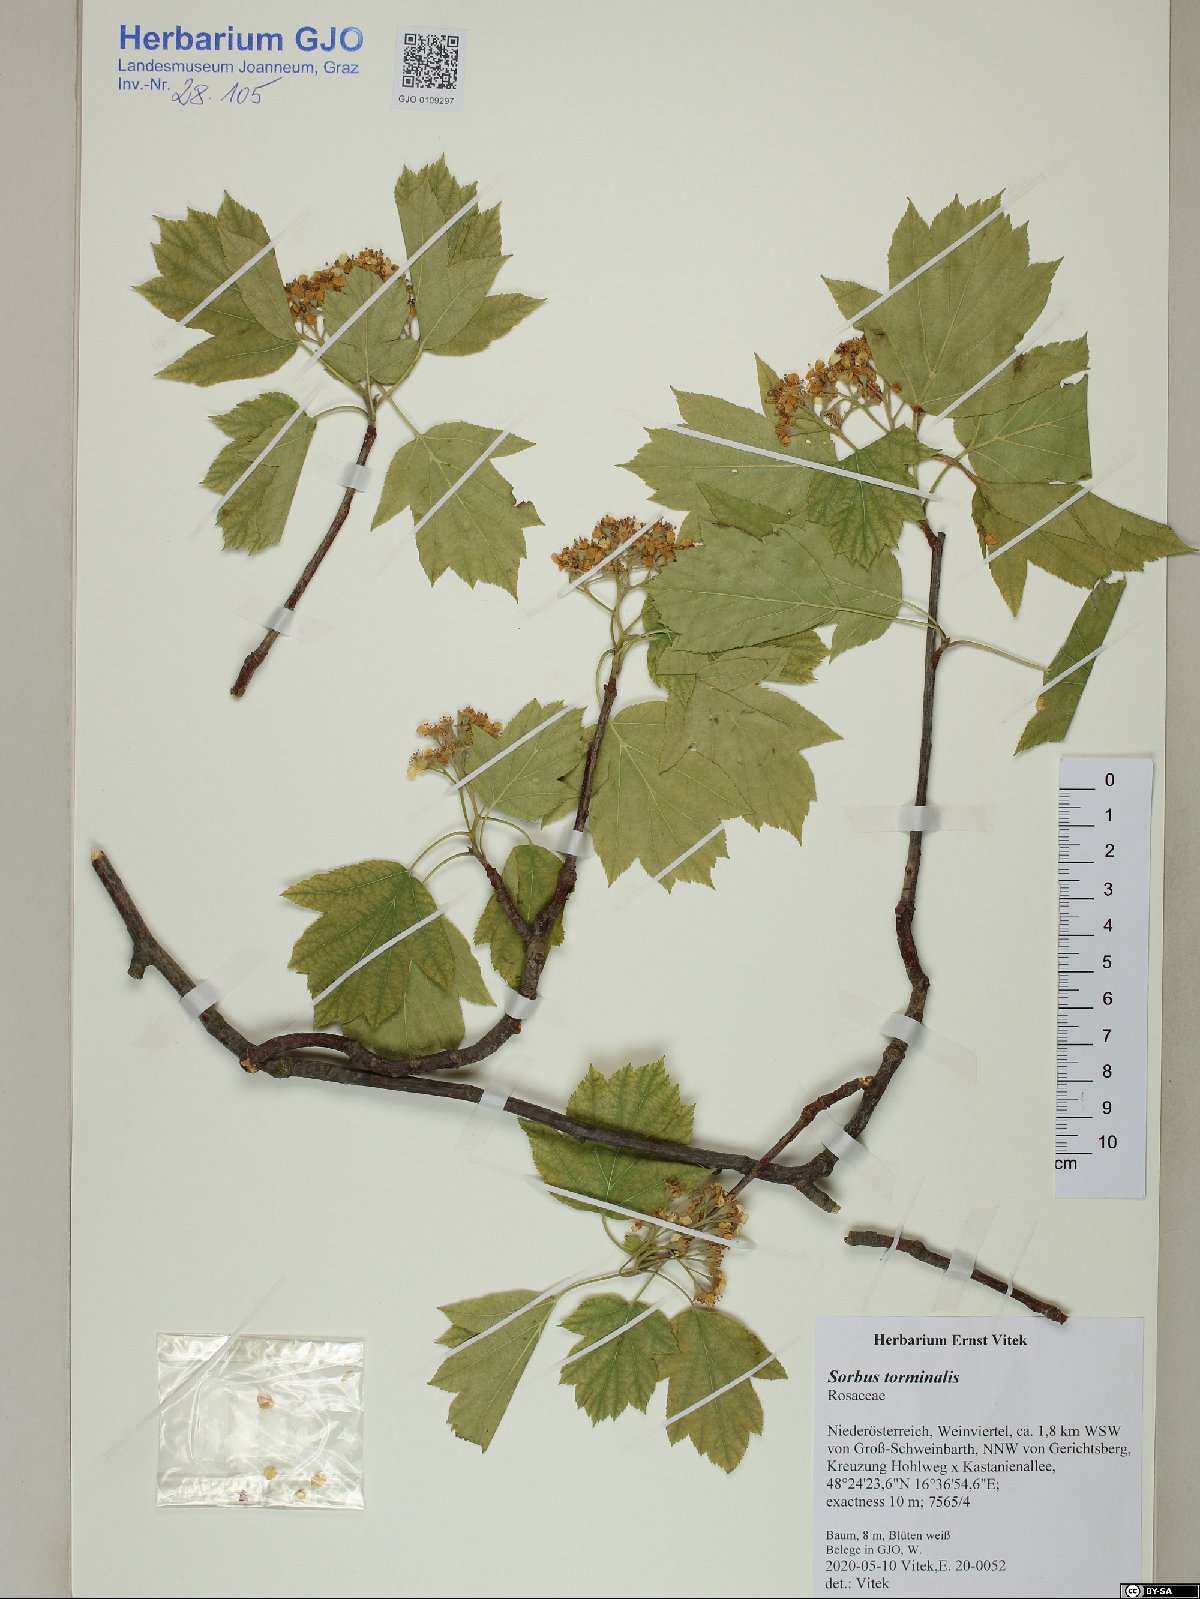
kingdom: Plantae
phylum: Tracheophyta
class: Magnoliopsida
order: Rosales
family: Rosaceae
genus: Torminalis
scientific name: Torminalis glaberrima
